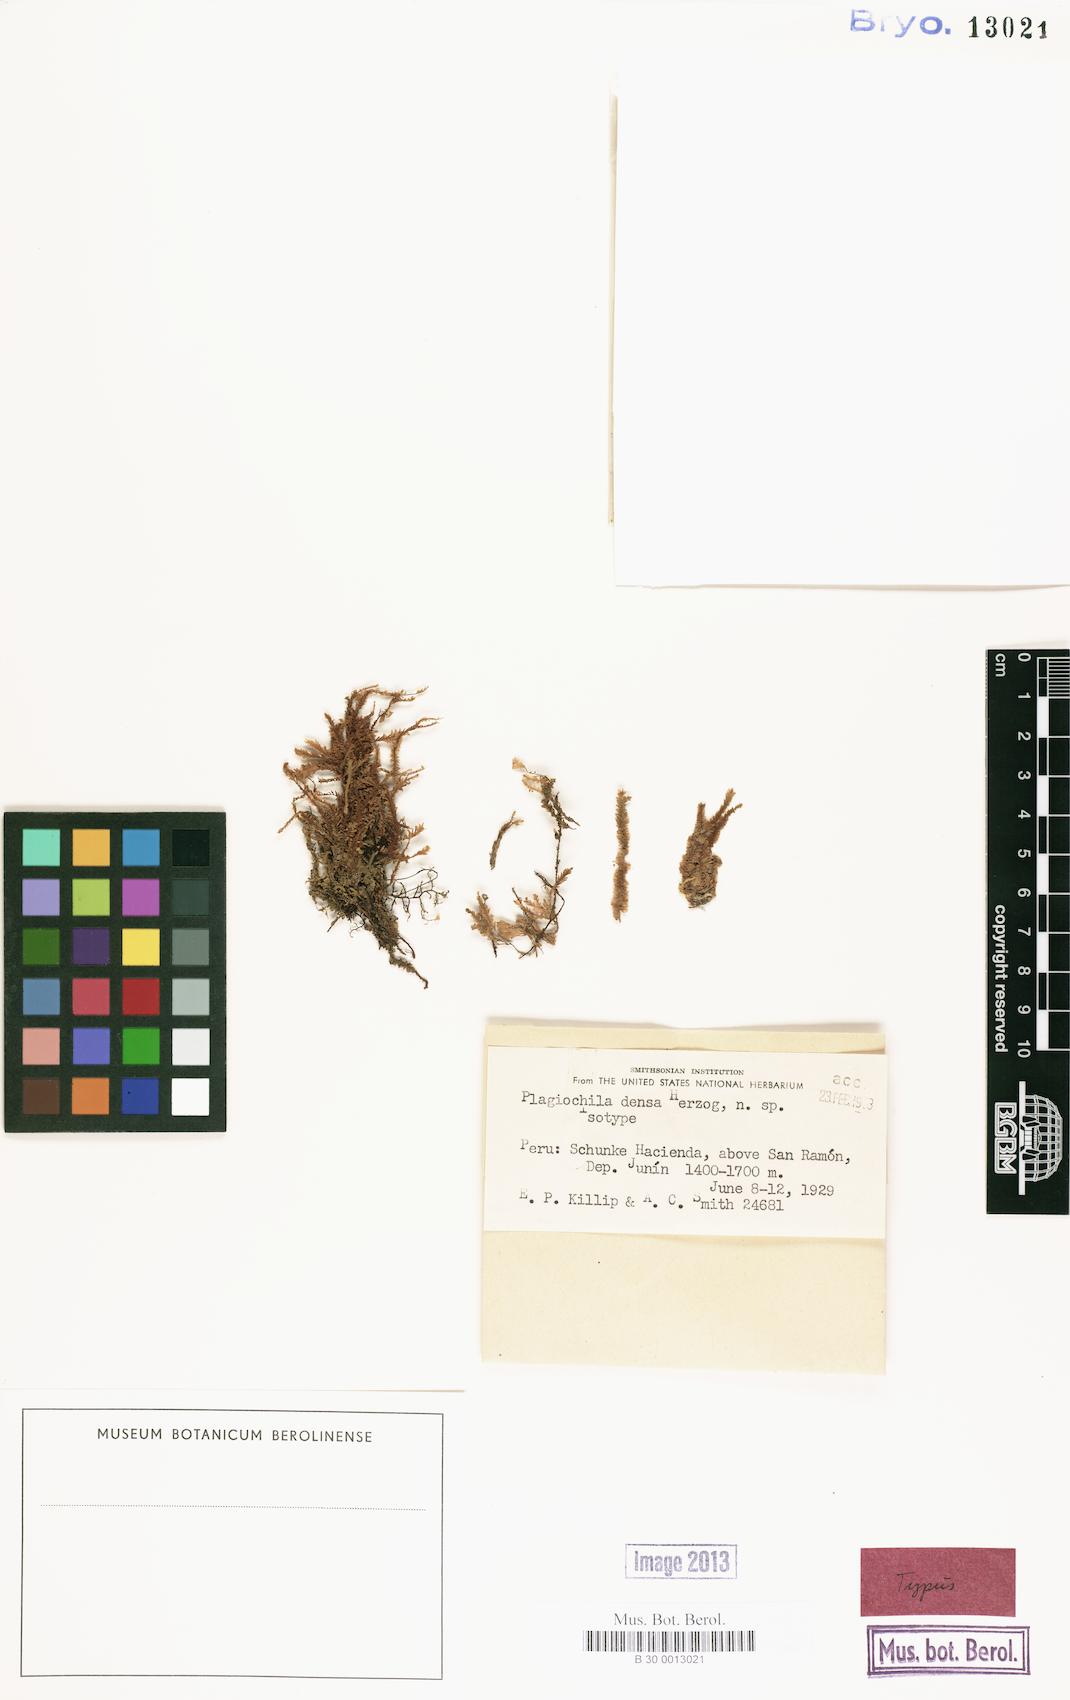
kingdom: Plantae
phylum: Marchantiophyta
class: Jungermanniopsida
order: Jungermanniales
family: Plagiochilaceae
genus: Plagiochila
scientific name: Plagiochila densa
